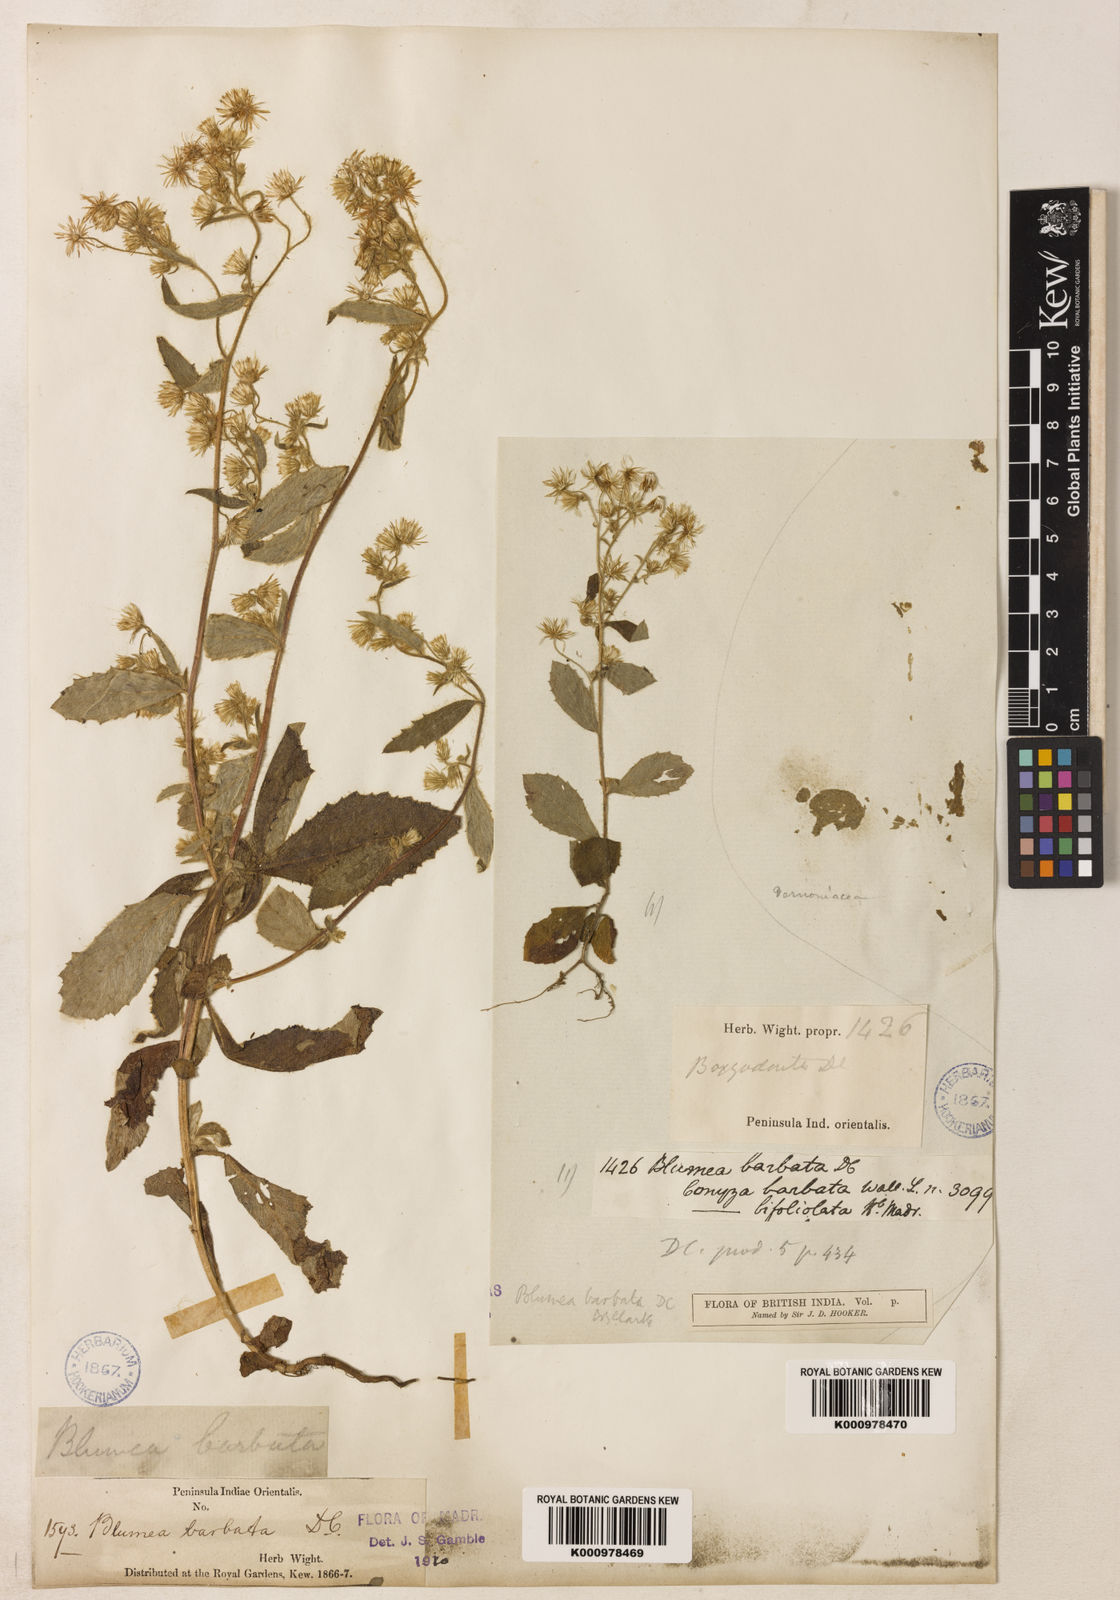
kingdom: Plantae
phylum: Tracheophyta
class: Magnoliopsida
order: Asterales
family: Asteraceae
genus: Blumea
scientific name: Blumea barbata
